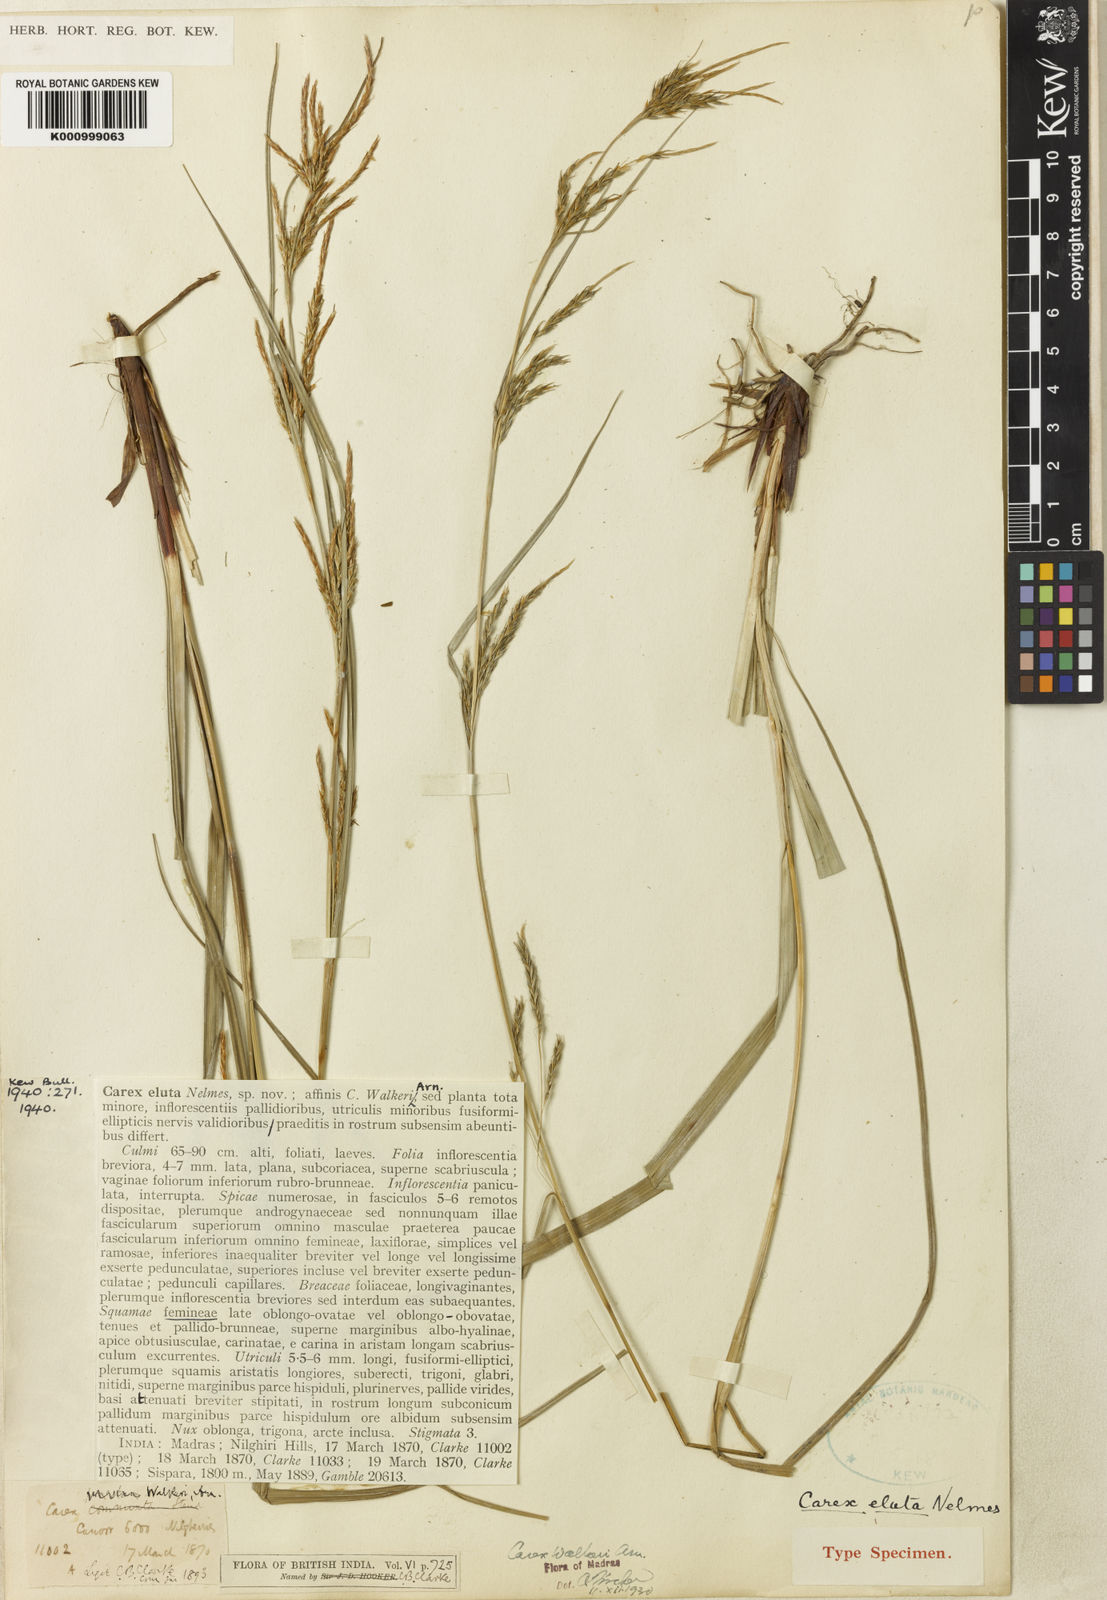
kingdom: Plantae
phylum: Tracheophyta
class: Liliopsida
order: Poales
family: Cyperaceae
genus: Carex
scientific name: Carex eluta
